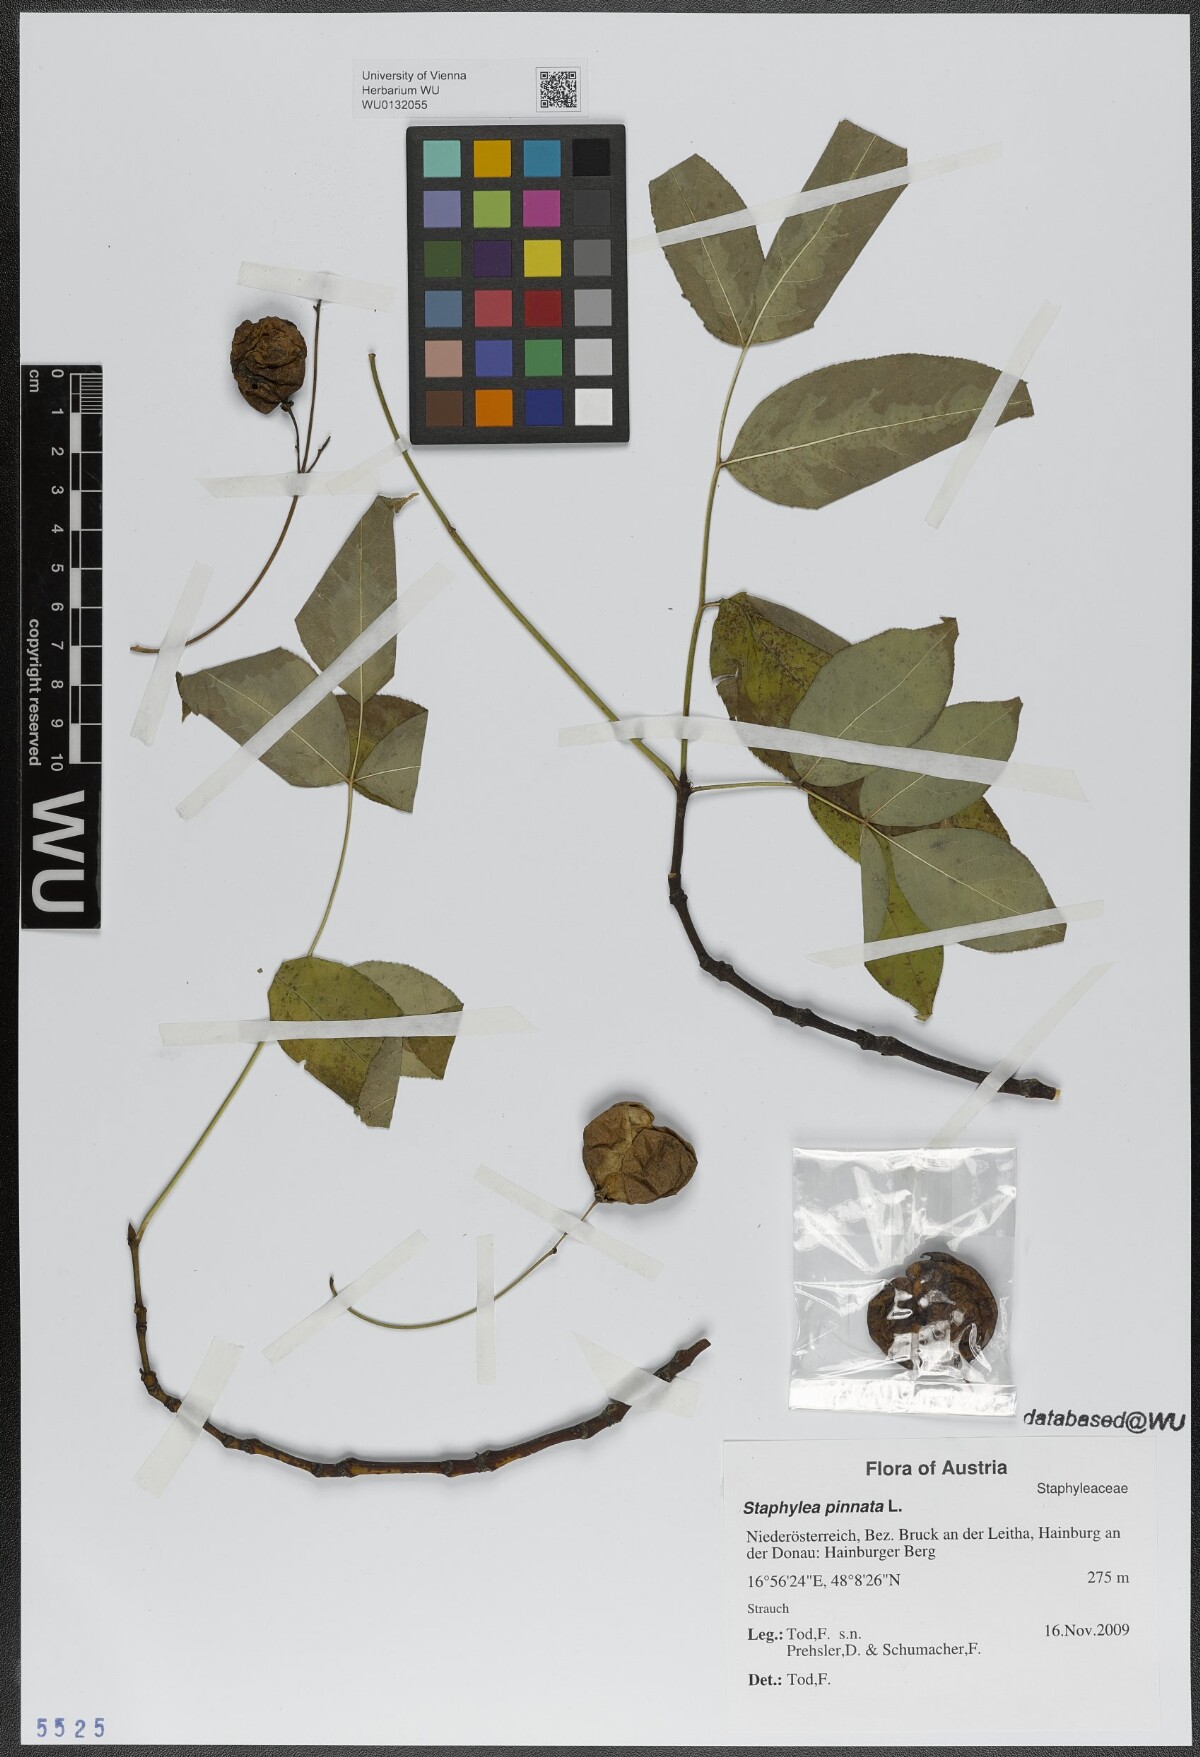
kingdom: Plantae
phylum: Tracheophyta
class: Magnoliopsida
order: Crossosomatales
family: Staphyleaceae
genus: Staphylea
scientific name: Staphylea pinnata
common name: Bladdernut
